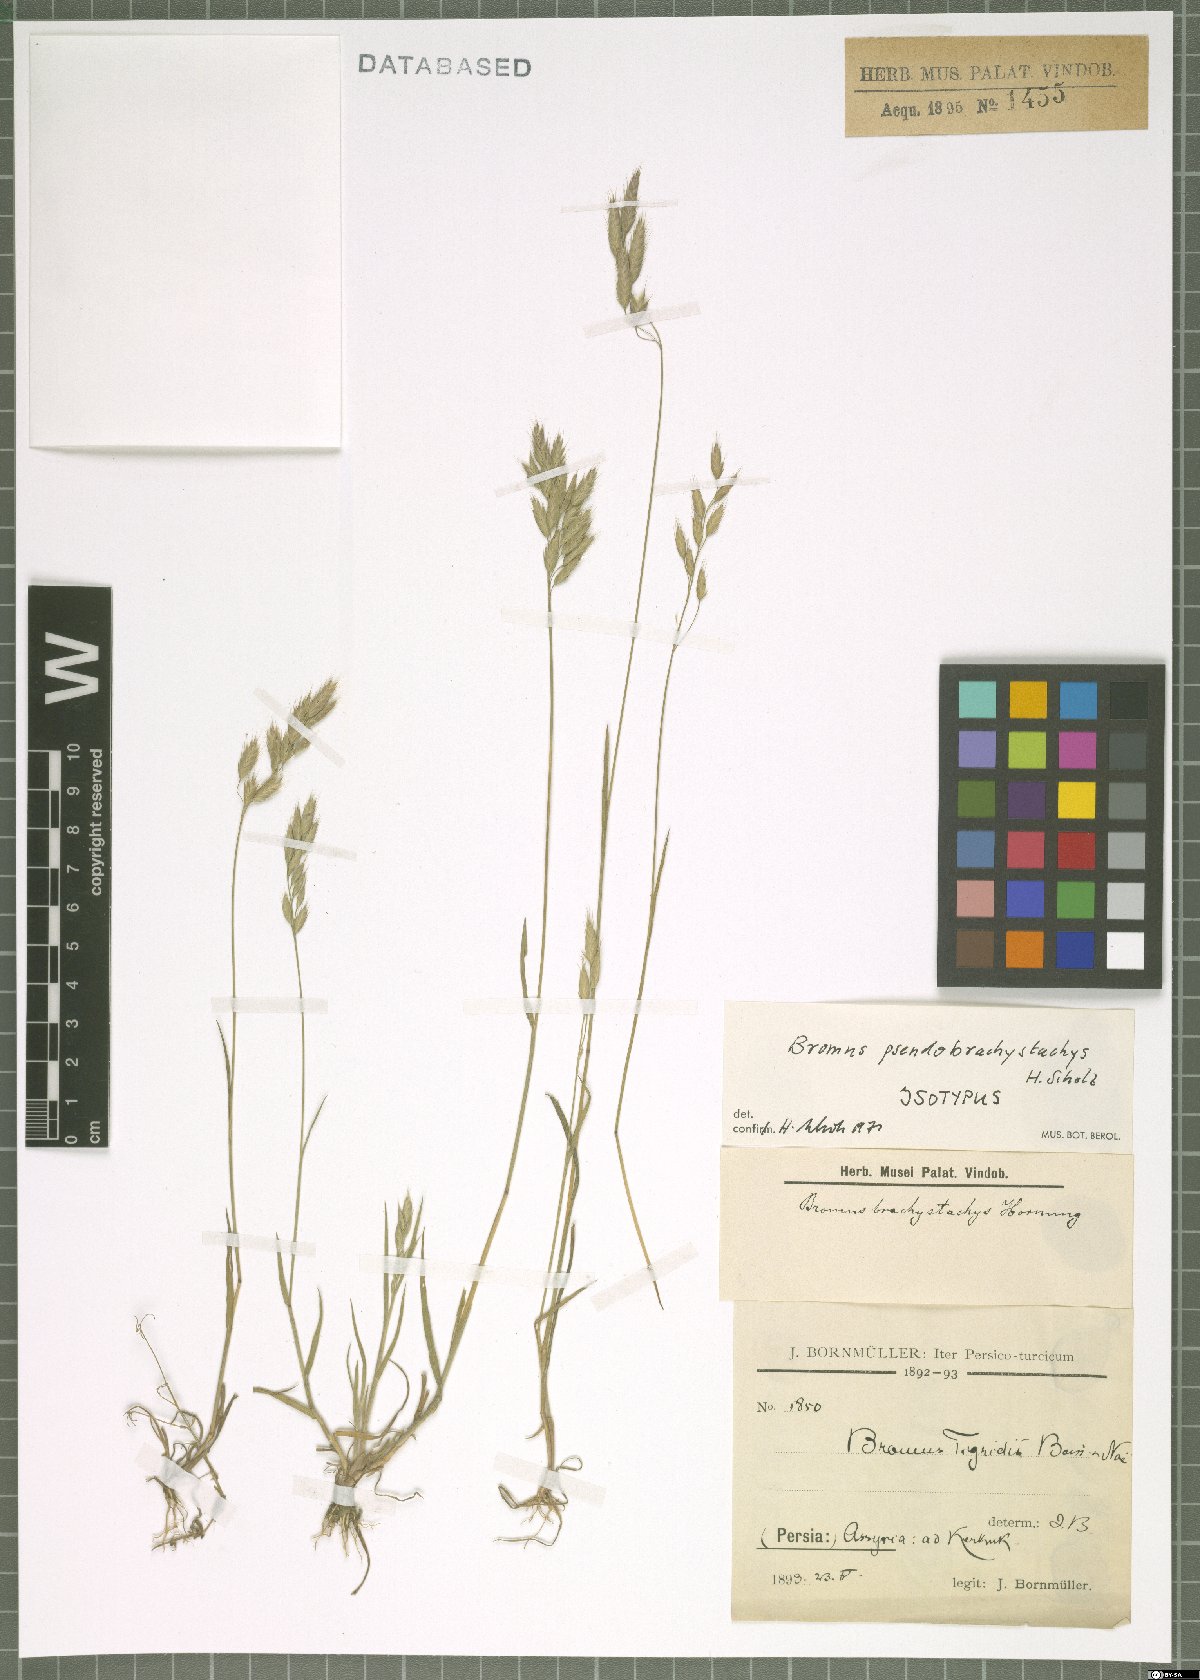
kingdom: Plantae
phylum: Tracheophyta
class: Liliopsida
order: Poales
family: Poaceae
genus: Bromus
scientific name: Bromus pseudobrachystachys
